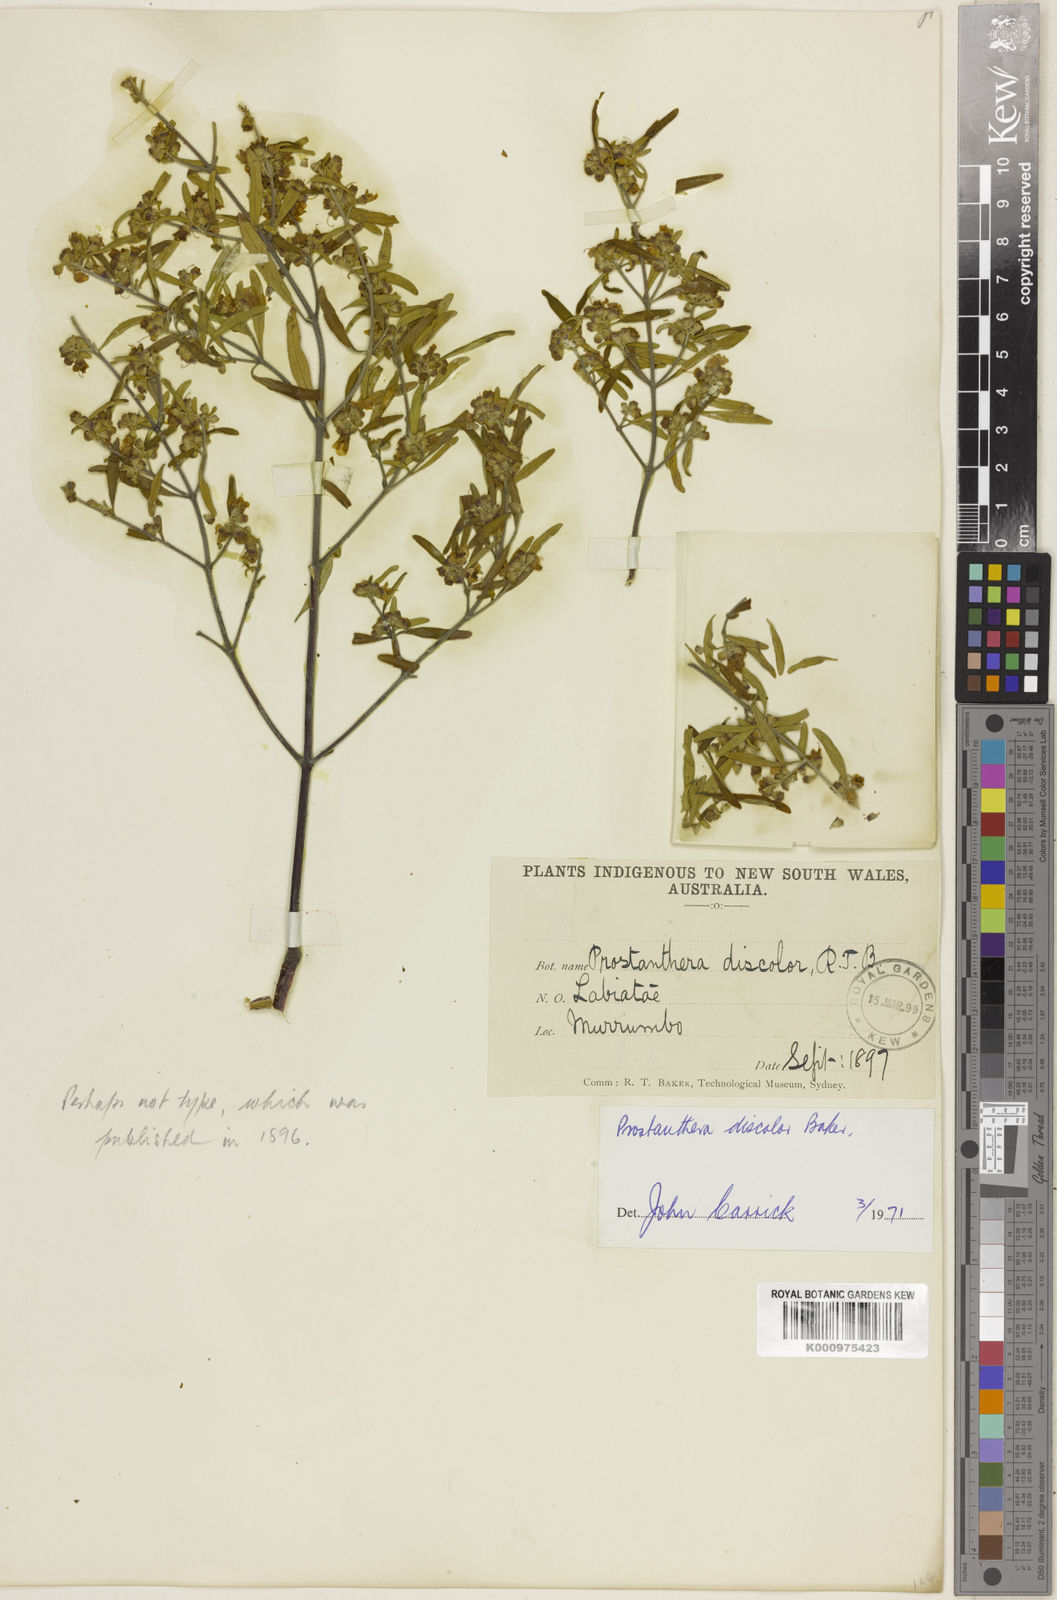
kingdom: Plantae
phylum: Tracheophyta
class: Magnoliopsida
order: Lamiales
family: Lamiaceae
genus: Prostanthera
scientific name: Prostanthera discolor
